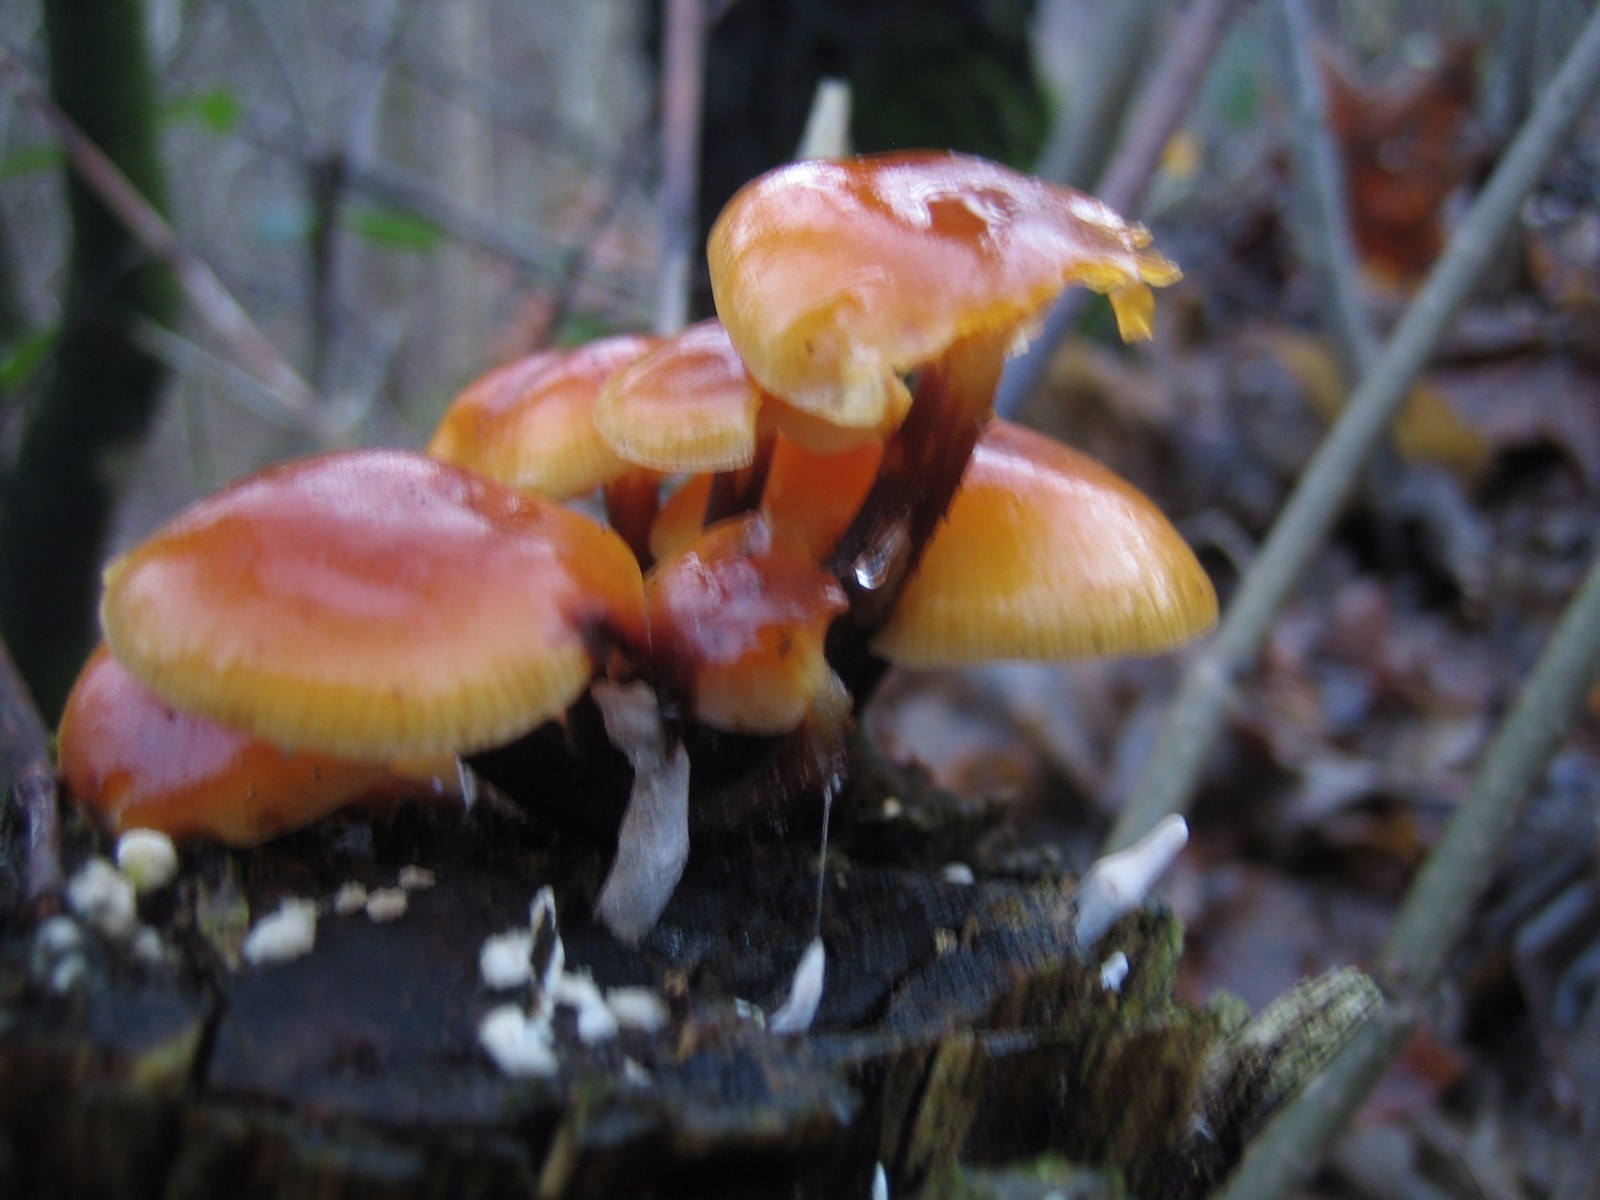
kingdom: Fungi
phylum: Basidiomycota
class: Agaricomycetes
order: Agaricales
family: Physalacriaceae
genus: Flammulina
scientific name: Flammulina velutipes
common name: gul fløjlsfod
